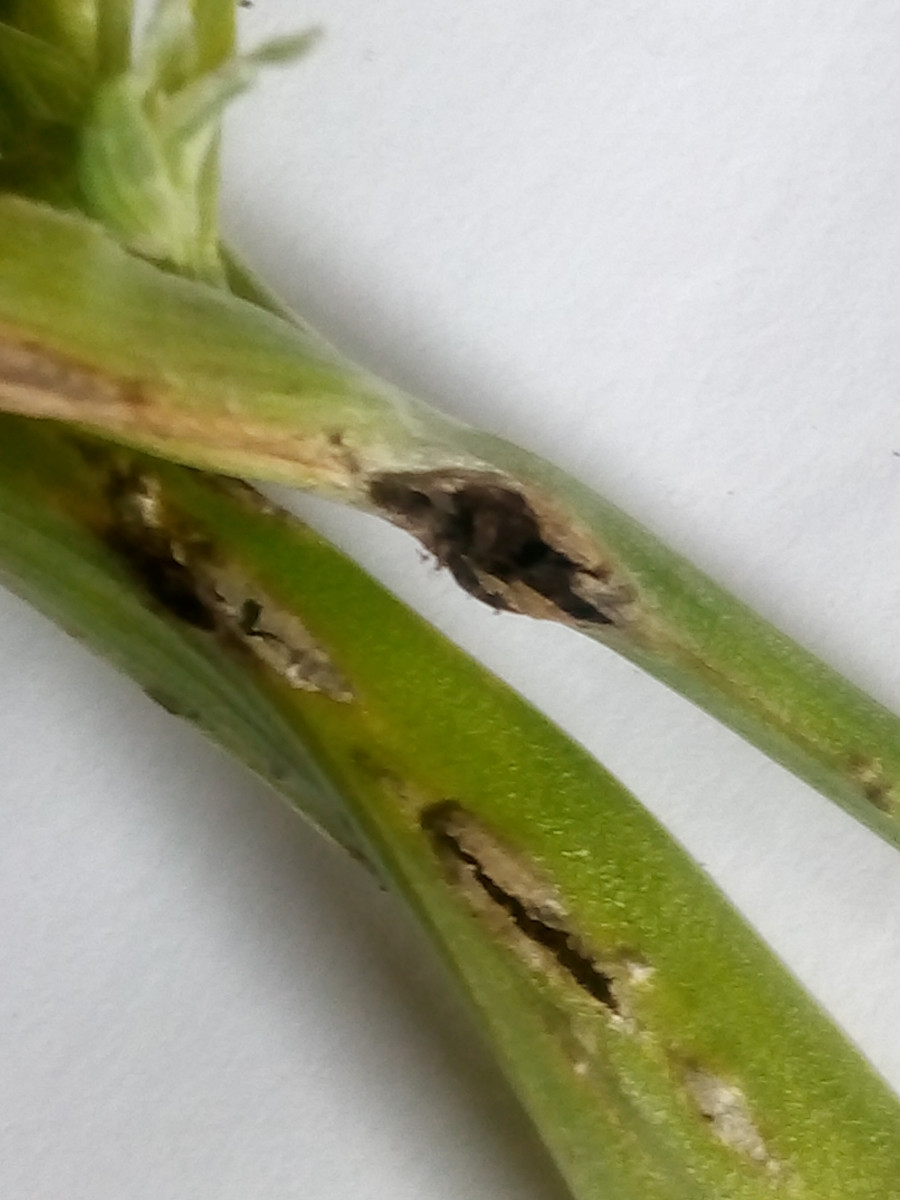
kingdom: Fungi
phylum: Basidiomycota
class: Ustilaginomycetes
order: Urocystidales
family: Urocystidaceae
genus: Vankya
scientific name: Vankya ornithogali
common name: Yellow star-of-bethlehem smut
